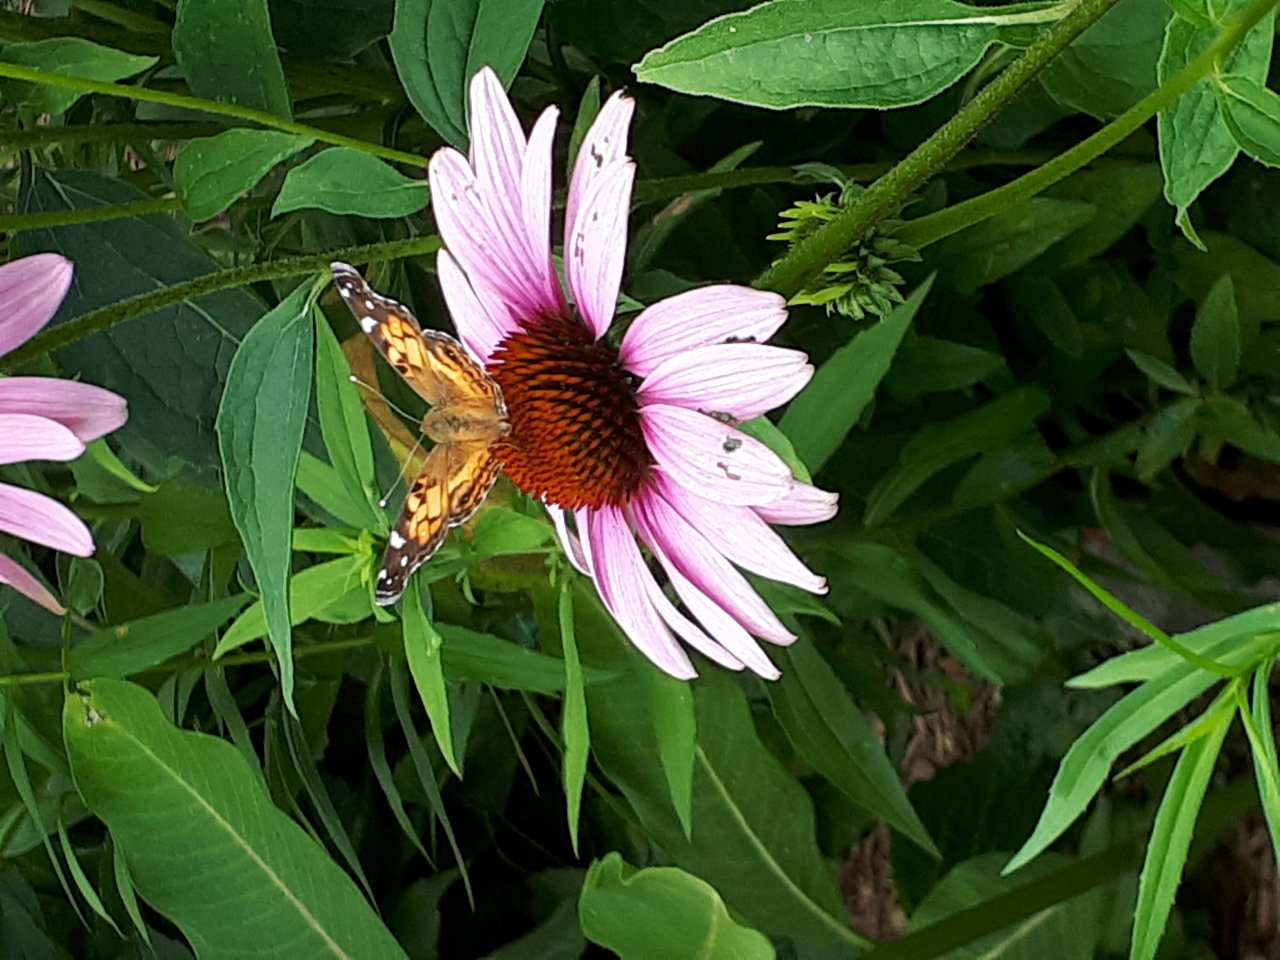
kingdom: Animalia
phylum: Arthropoda
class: Insecta
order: Lepidoptera
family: Nymphalidae
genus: Vanessa
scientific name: Vanessa virginiensis
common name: American Lady
